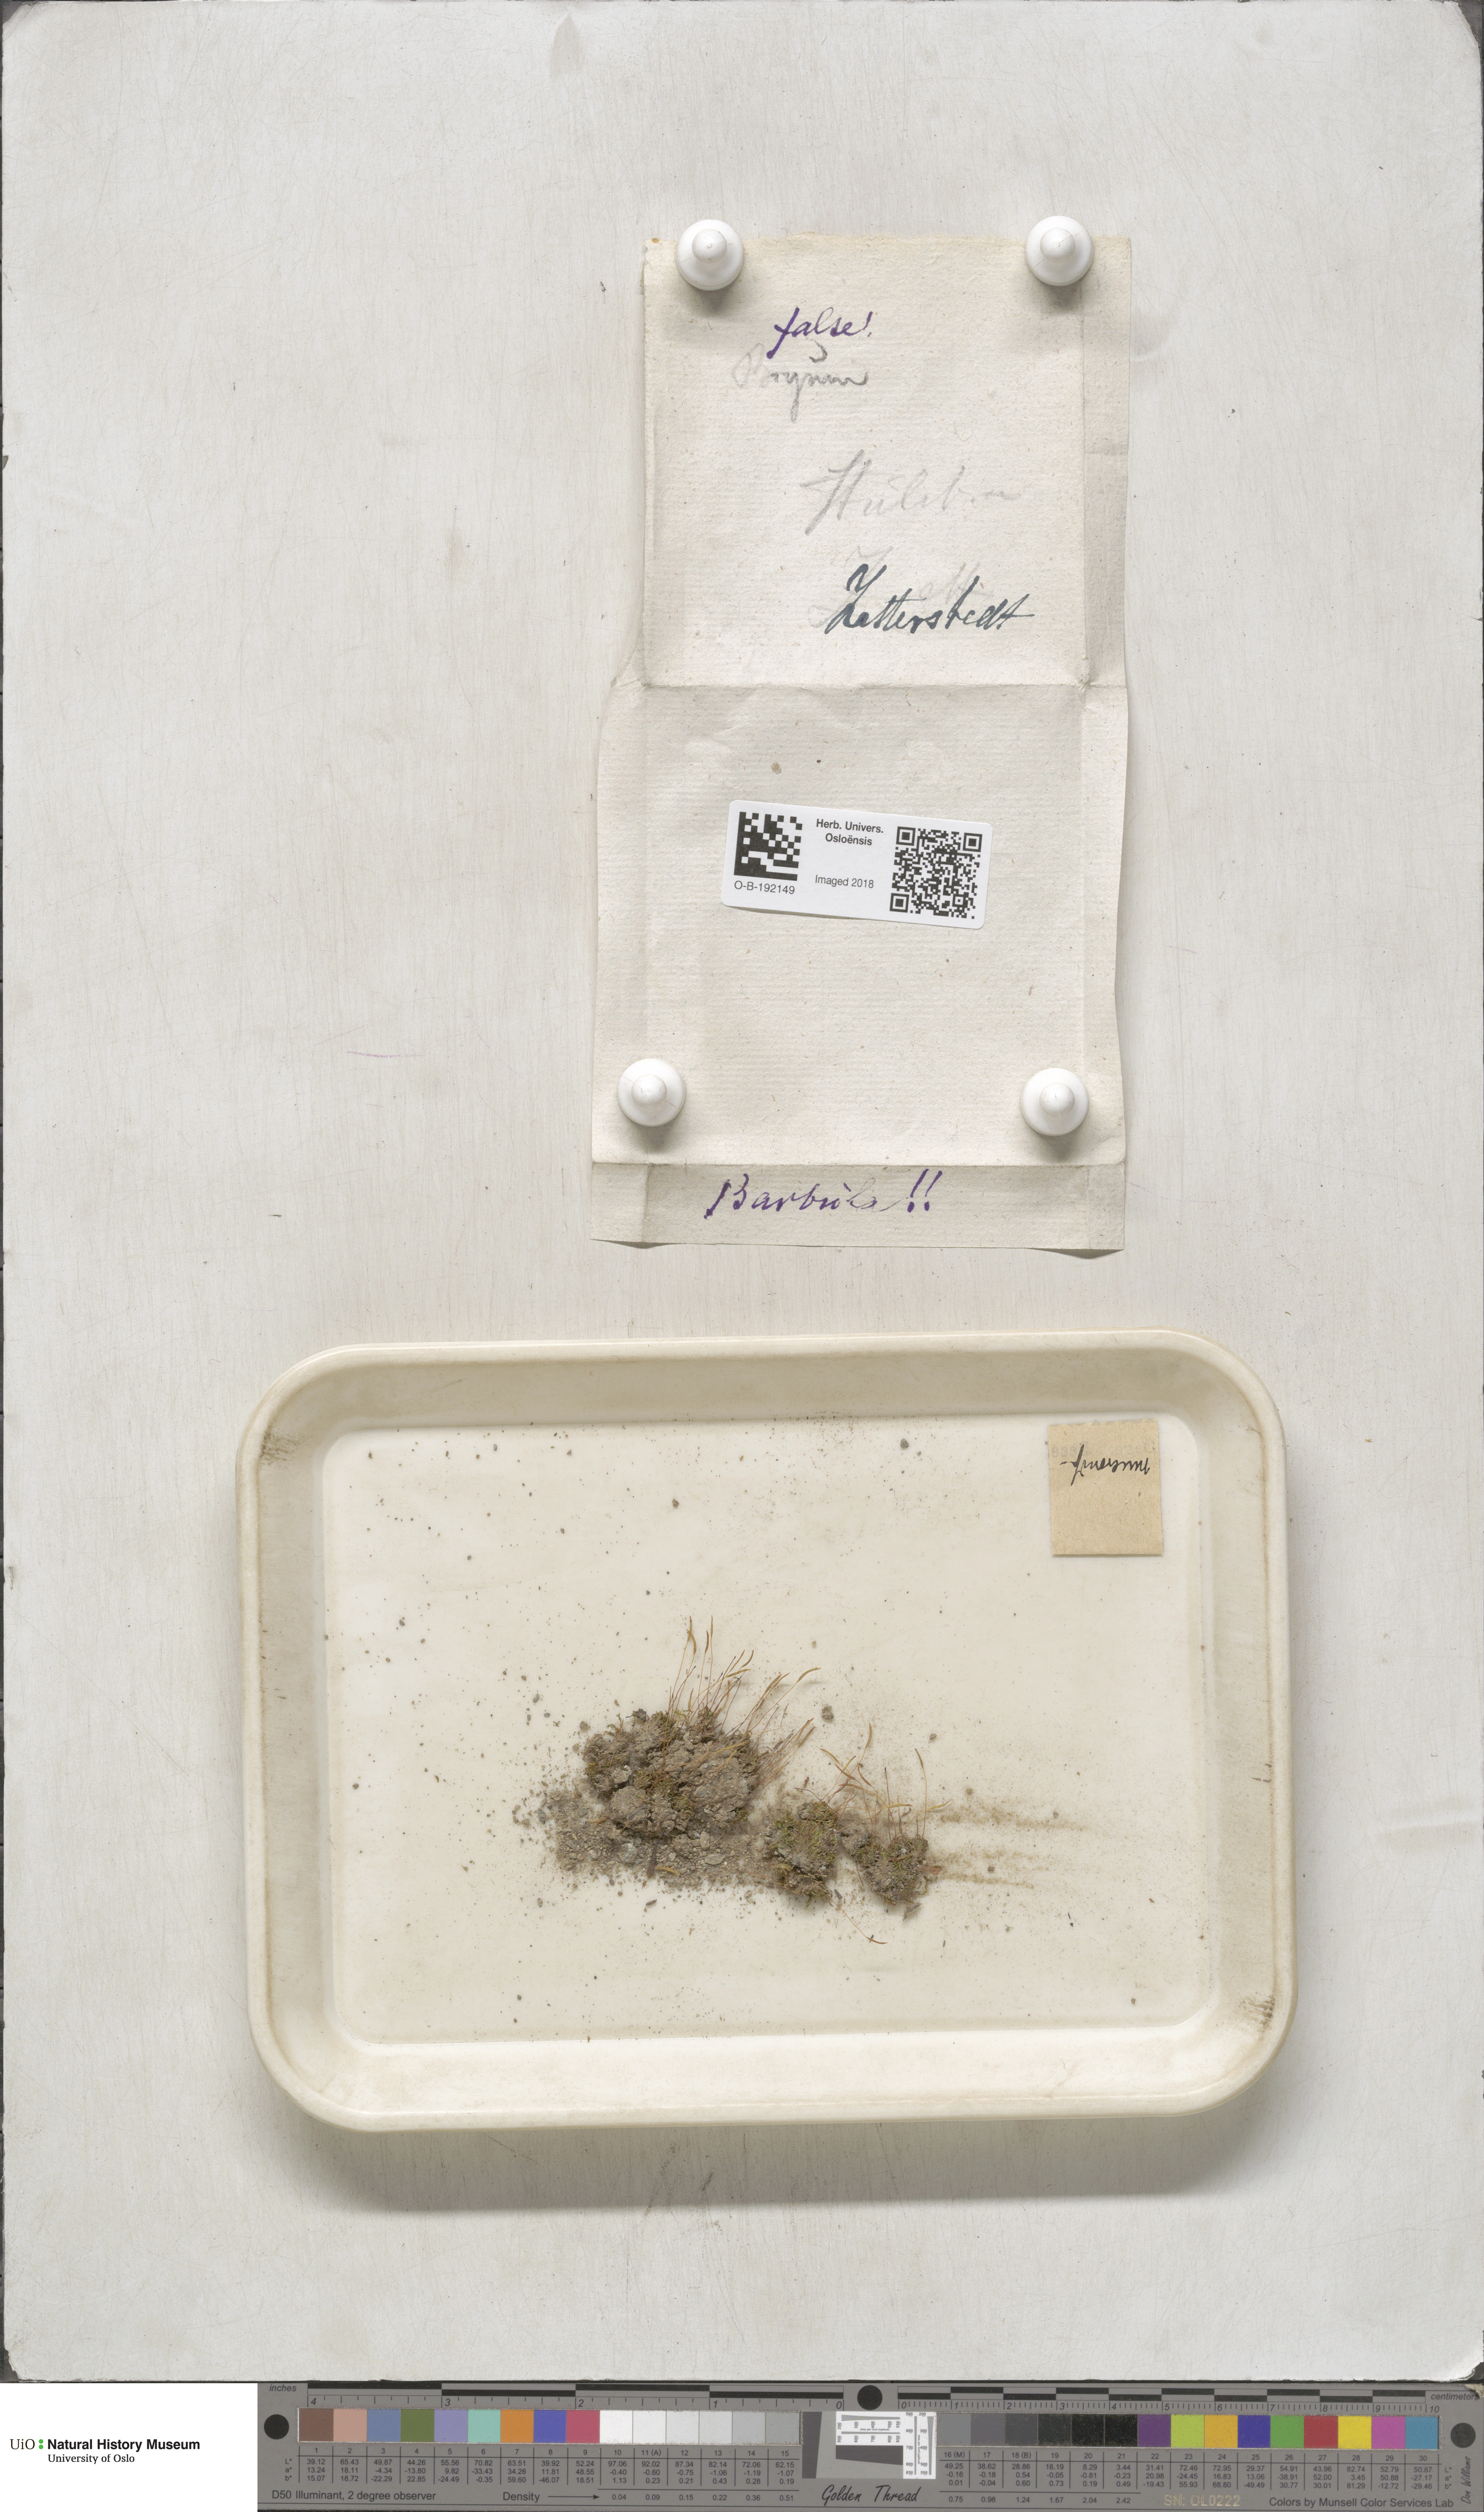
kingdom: Plantae
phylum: Bryophyta
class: Bryopsida
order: Pottiales
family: Pottiaceae
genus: Tortula
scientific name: Tortula mucronifolia
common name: Mucronate screw moss
